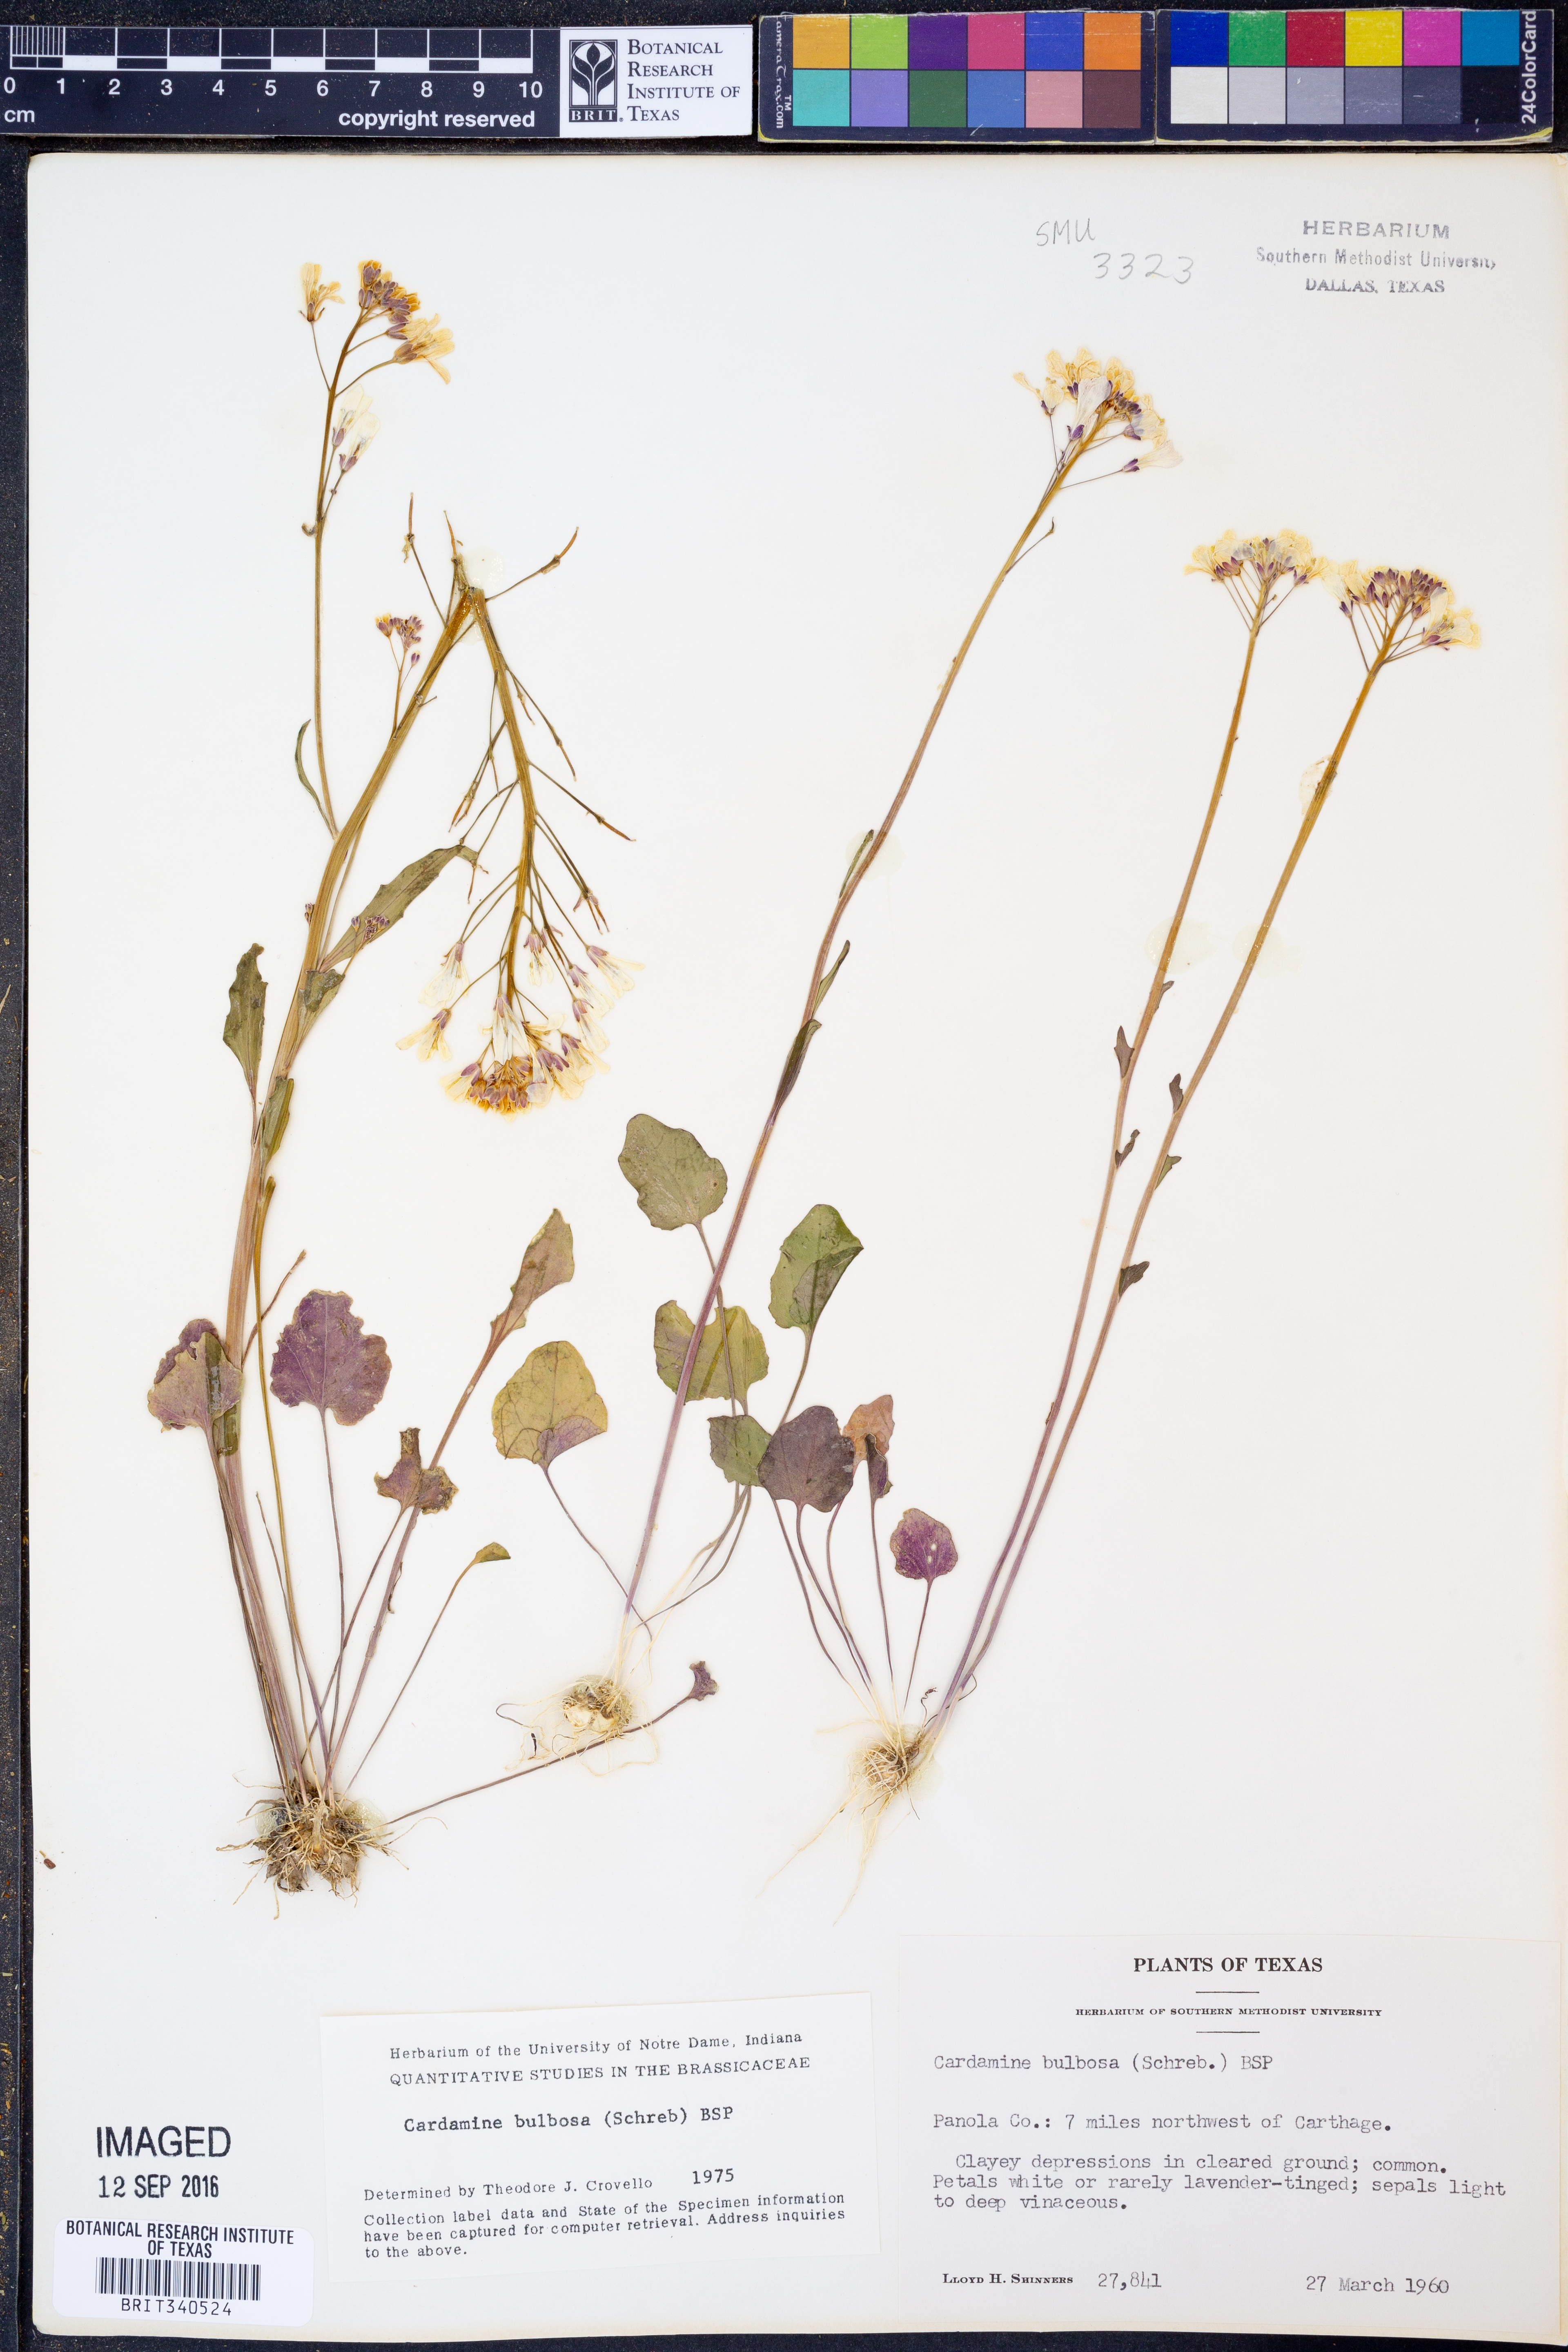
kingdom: Plantae
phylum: Tracheophyta
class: Magnoliopsida
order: Brassicales
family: Brassicaceae
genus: Cardamine
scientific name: Cardamine bulbosa
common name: Spring cress
